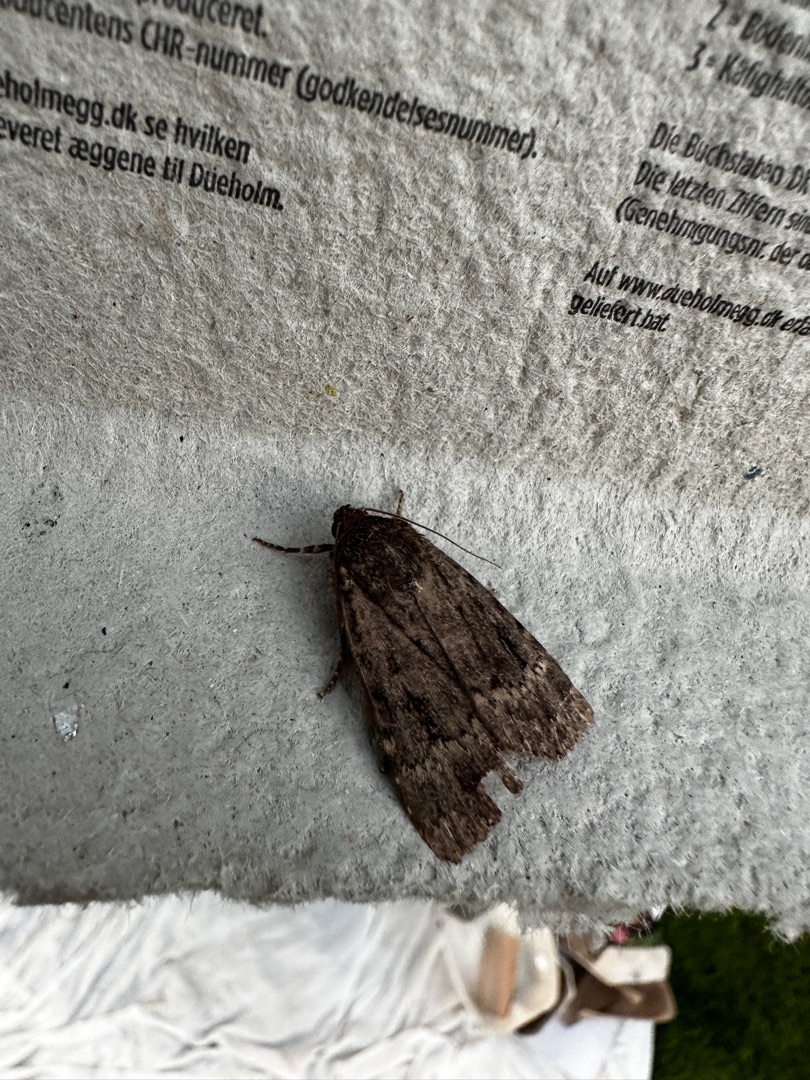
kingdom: Animalia
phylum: Arthropoda
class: Insecta
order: Lepidoptera
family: Noctuidae
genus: Amphipyra
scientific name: Amphipyra pyramidea
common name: Pyramideugle
